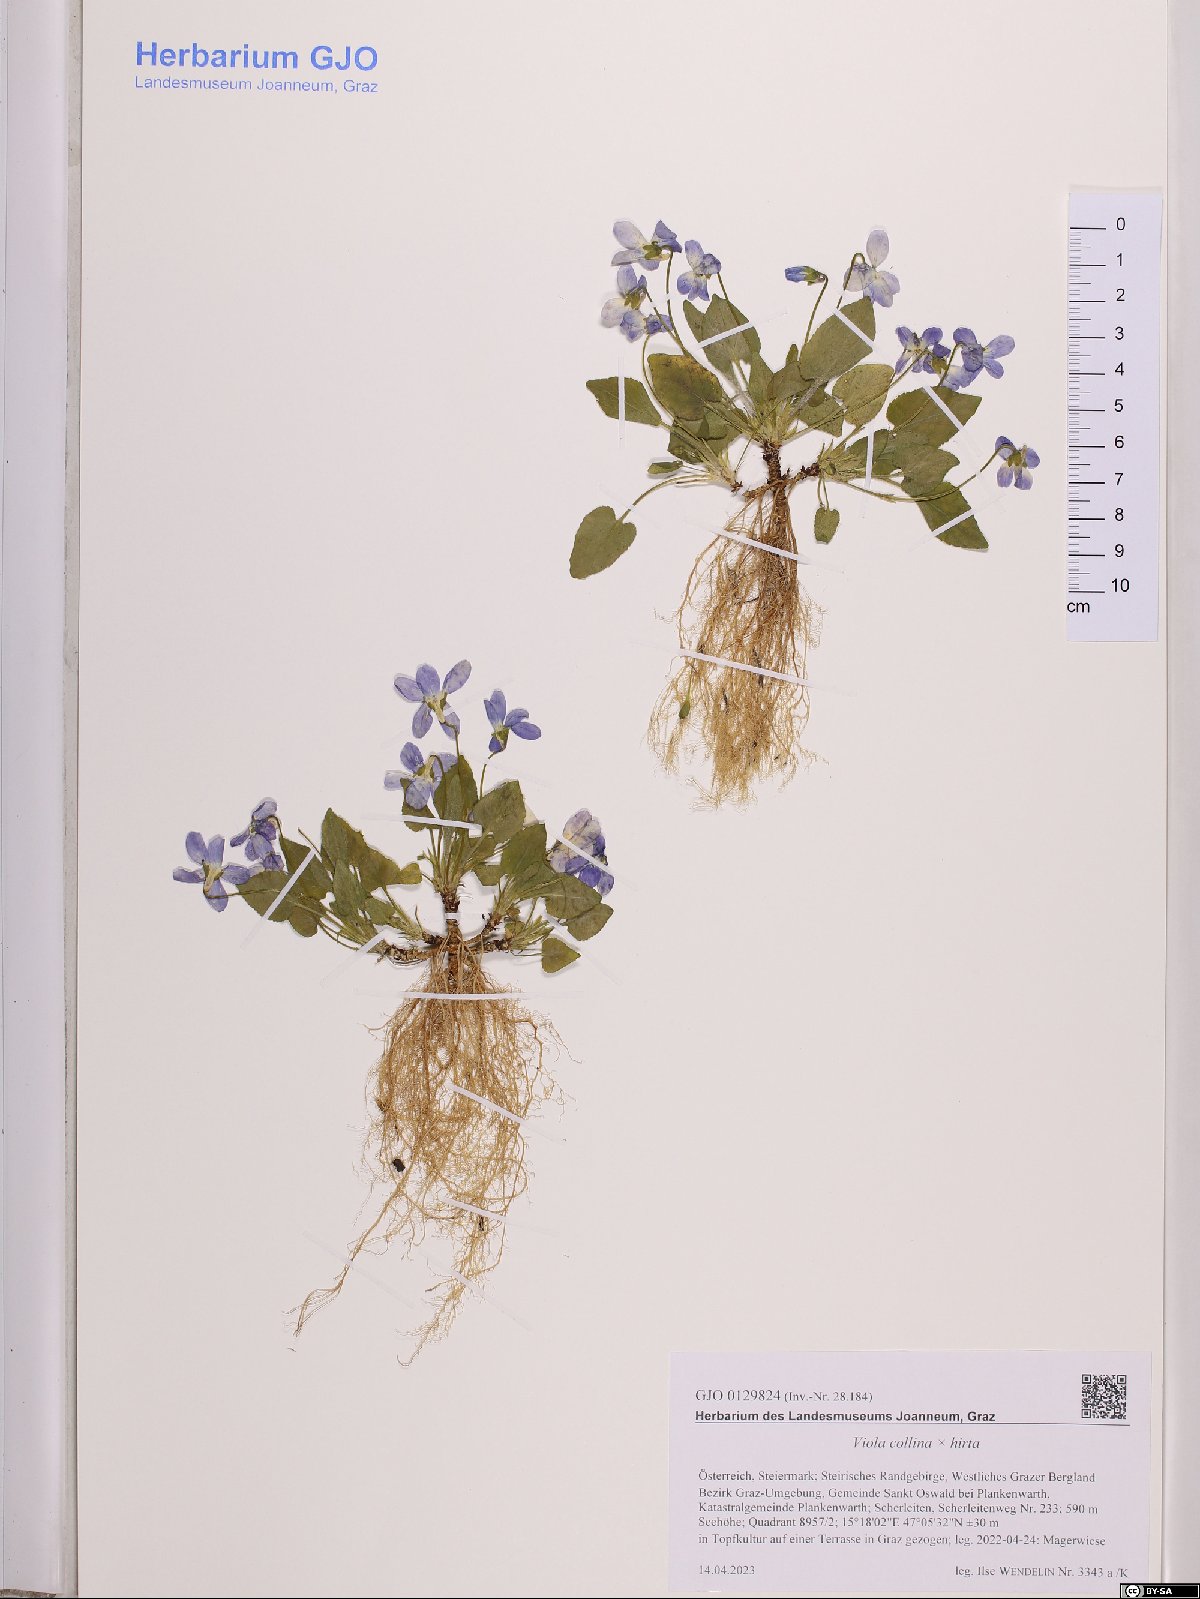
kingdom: Plantae
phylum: Tracheophyta
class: Magnoliopsida
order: Malpighiales
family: Violaceae
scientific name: Violaceae
